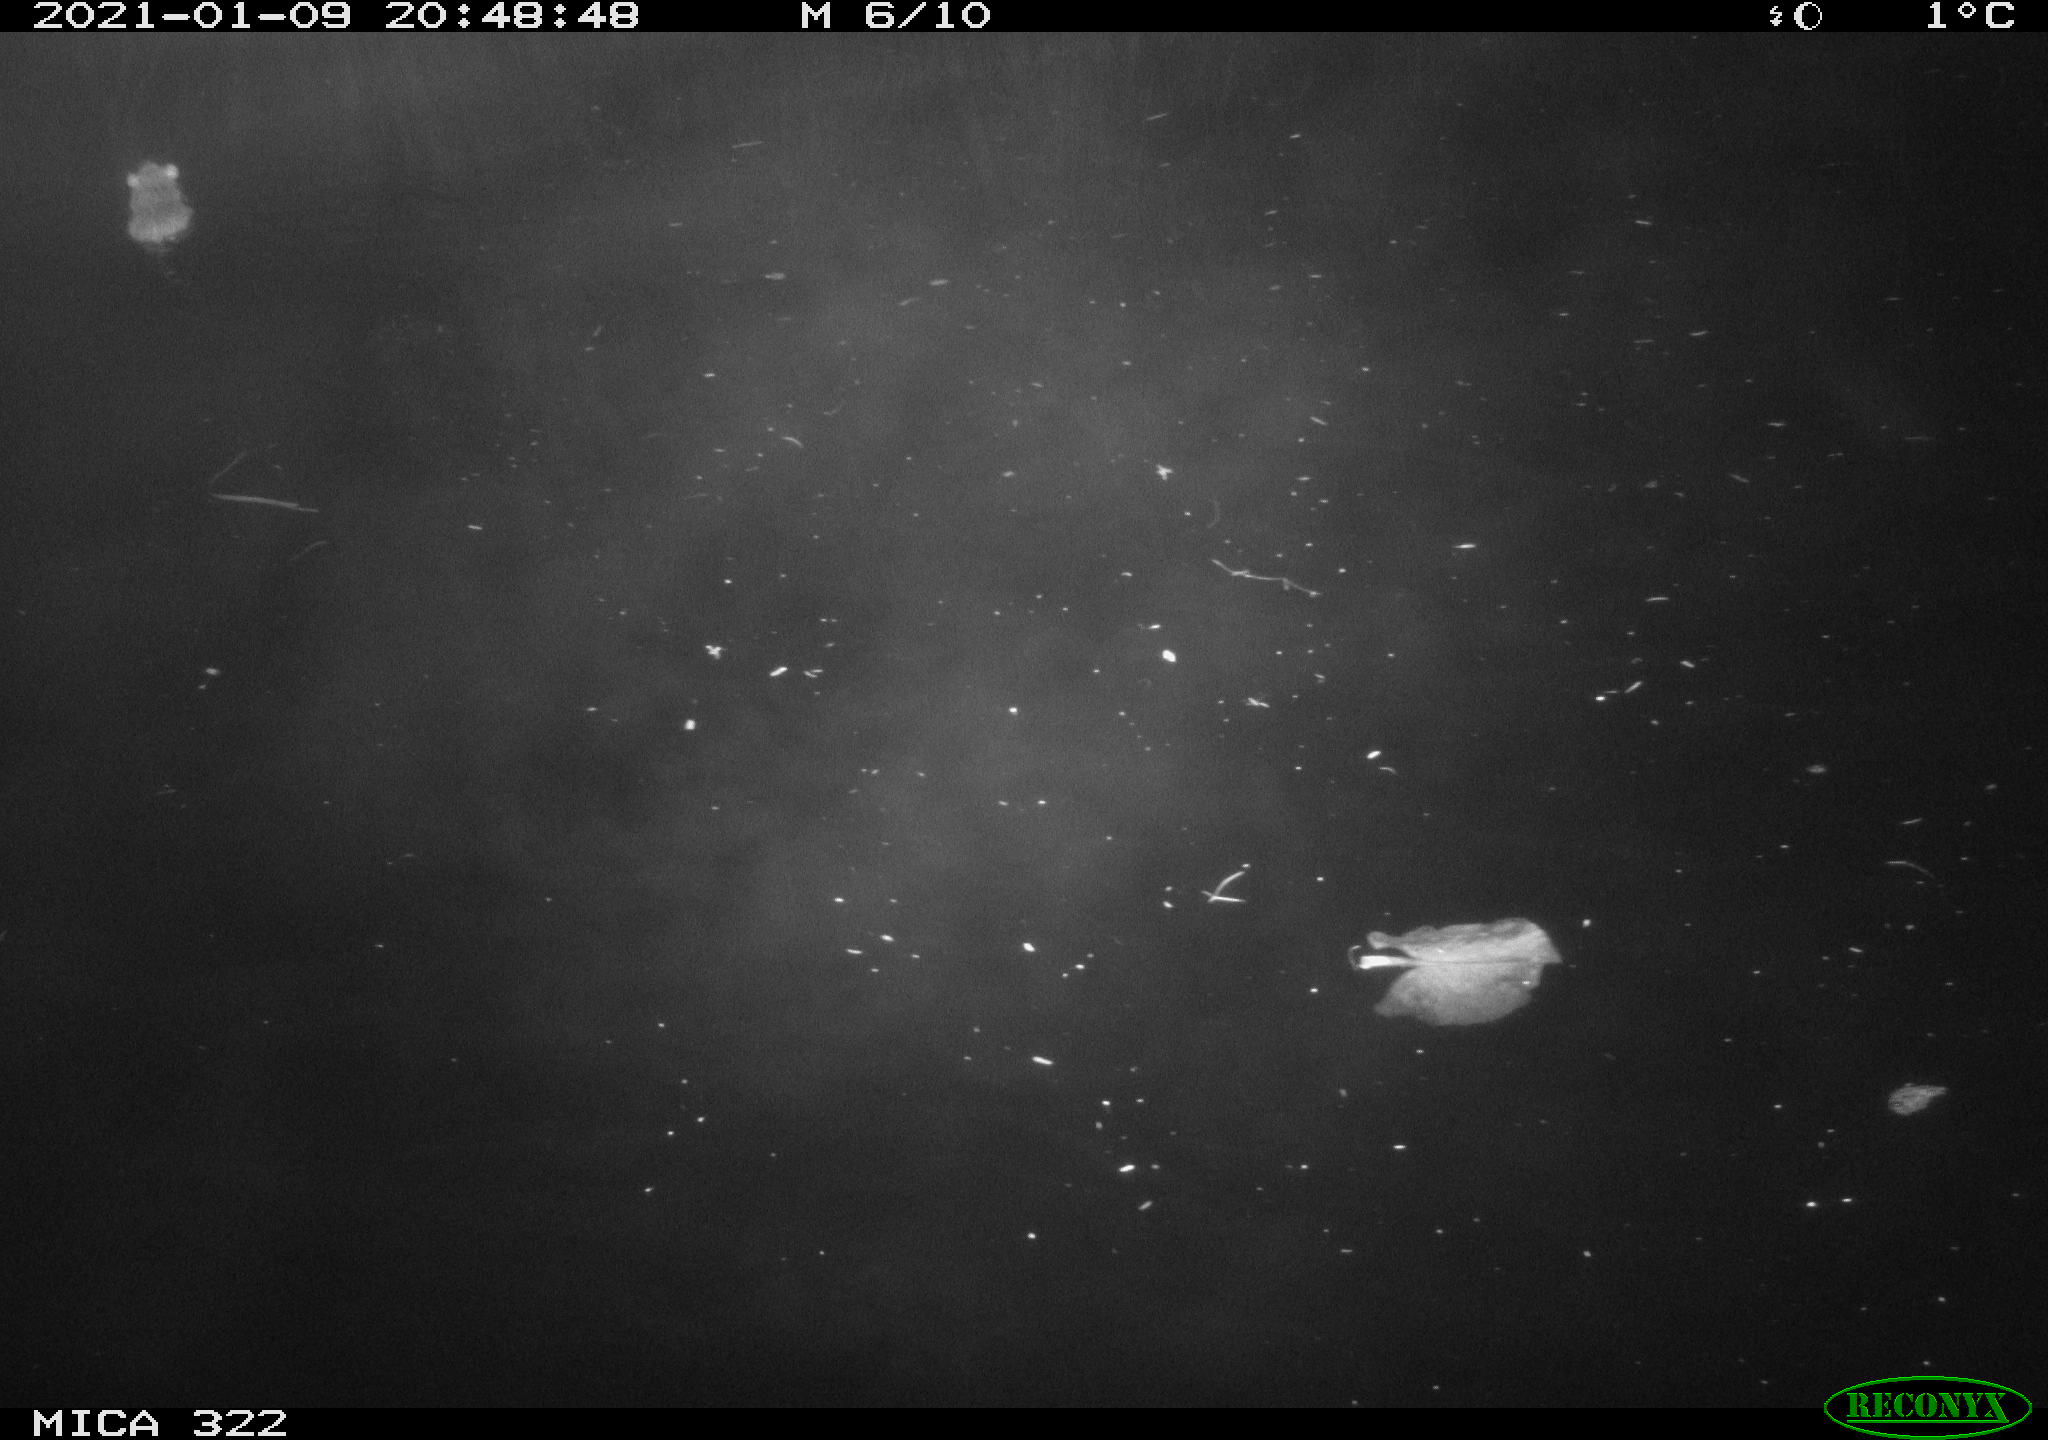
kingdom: Animalia
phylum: Chordata
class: Mammalia
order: Rodentia
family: Muridae
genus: Rattus
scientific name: Rattus norvegicus
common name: Brown rat
